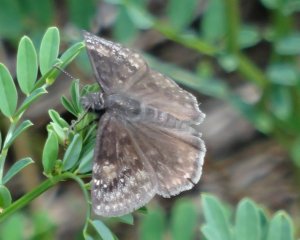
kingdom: Animalia
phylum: Arthropoda
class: Insecta
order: Lepidoptera
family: Hesperiidae
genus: Gesta
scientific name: Gesta
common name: Wild Indigo Duskywing
